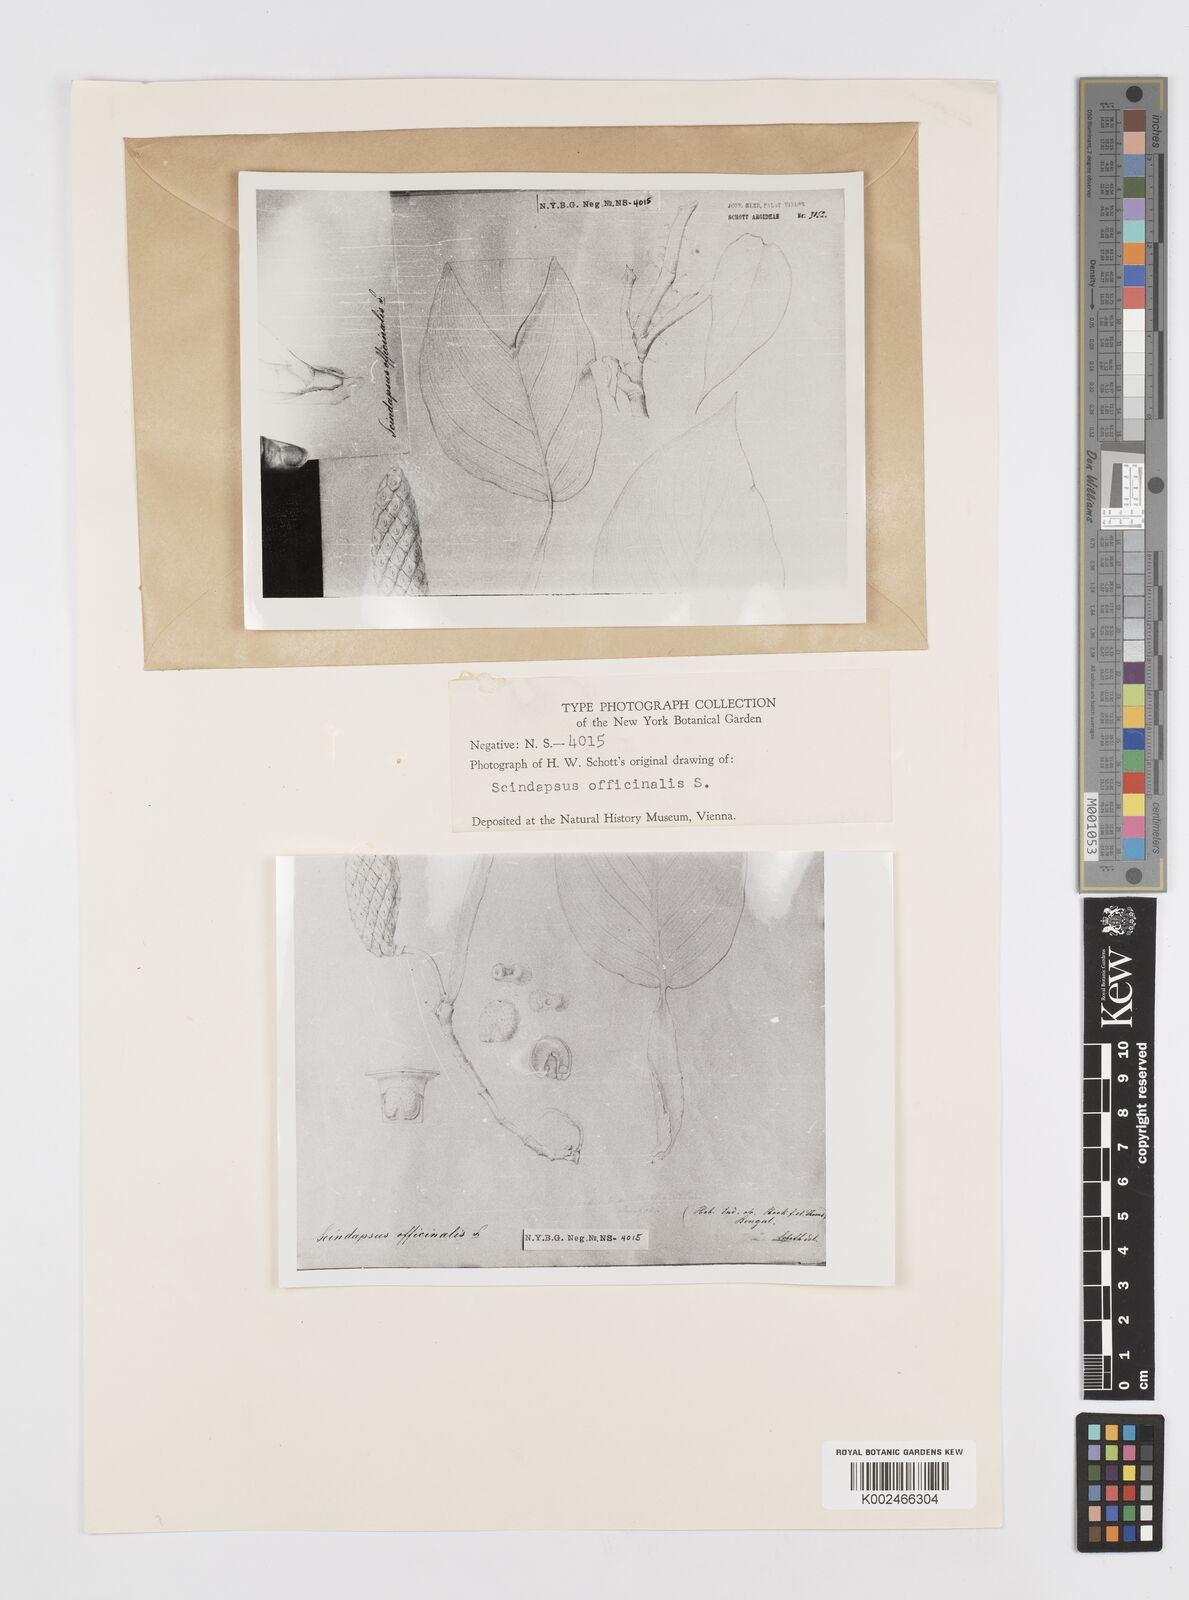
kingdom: Plantae
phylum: Tracheophyta
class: Liliopsida
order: Alismatales
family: Araceae
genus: Scindapsus
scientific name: Scindapsus officinalis
